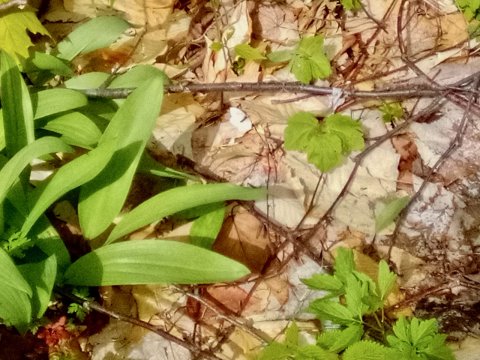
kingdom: Animalia
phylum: Arthropoda
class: Insecta
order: Lepidoptera
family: Pieridae
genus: Pieris
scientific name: Pieris virginiensis
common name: West Virginia White
